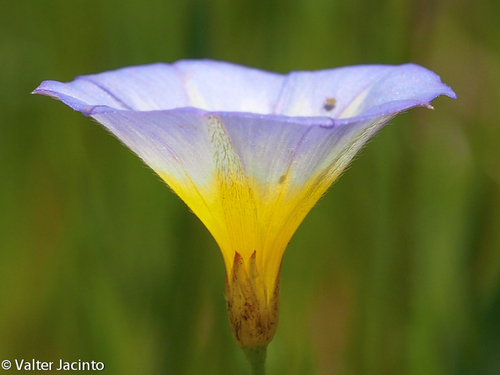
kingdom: Plantae
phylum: Tracheophyta
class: Magnoliopsida
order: Solanales
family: Convolvulaceae
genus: Convolvulus
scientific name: Convolvulus meonanthus
